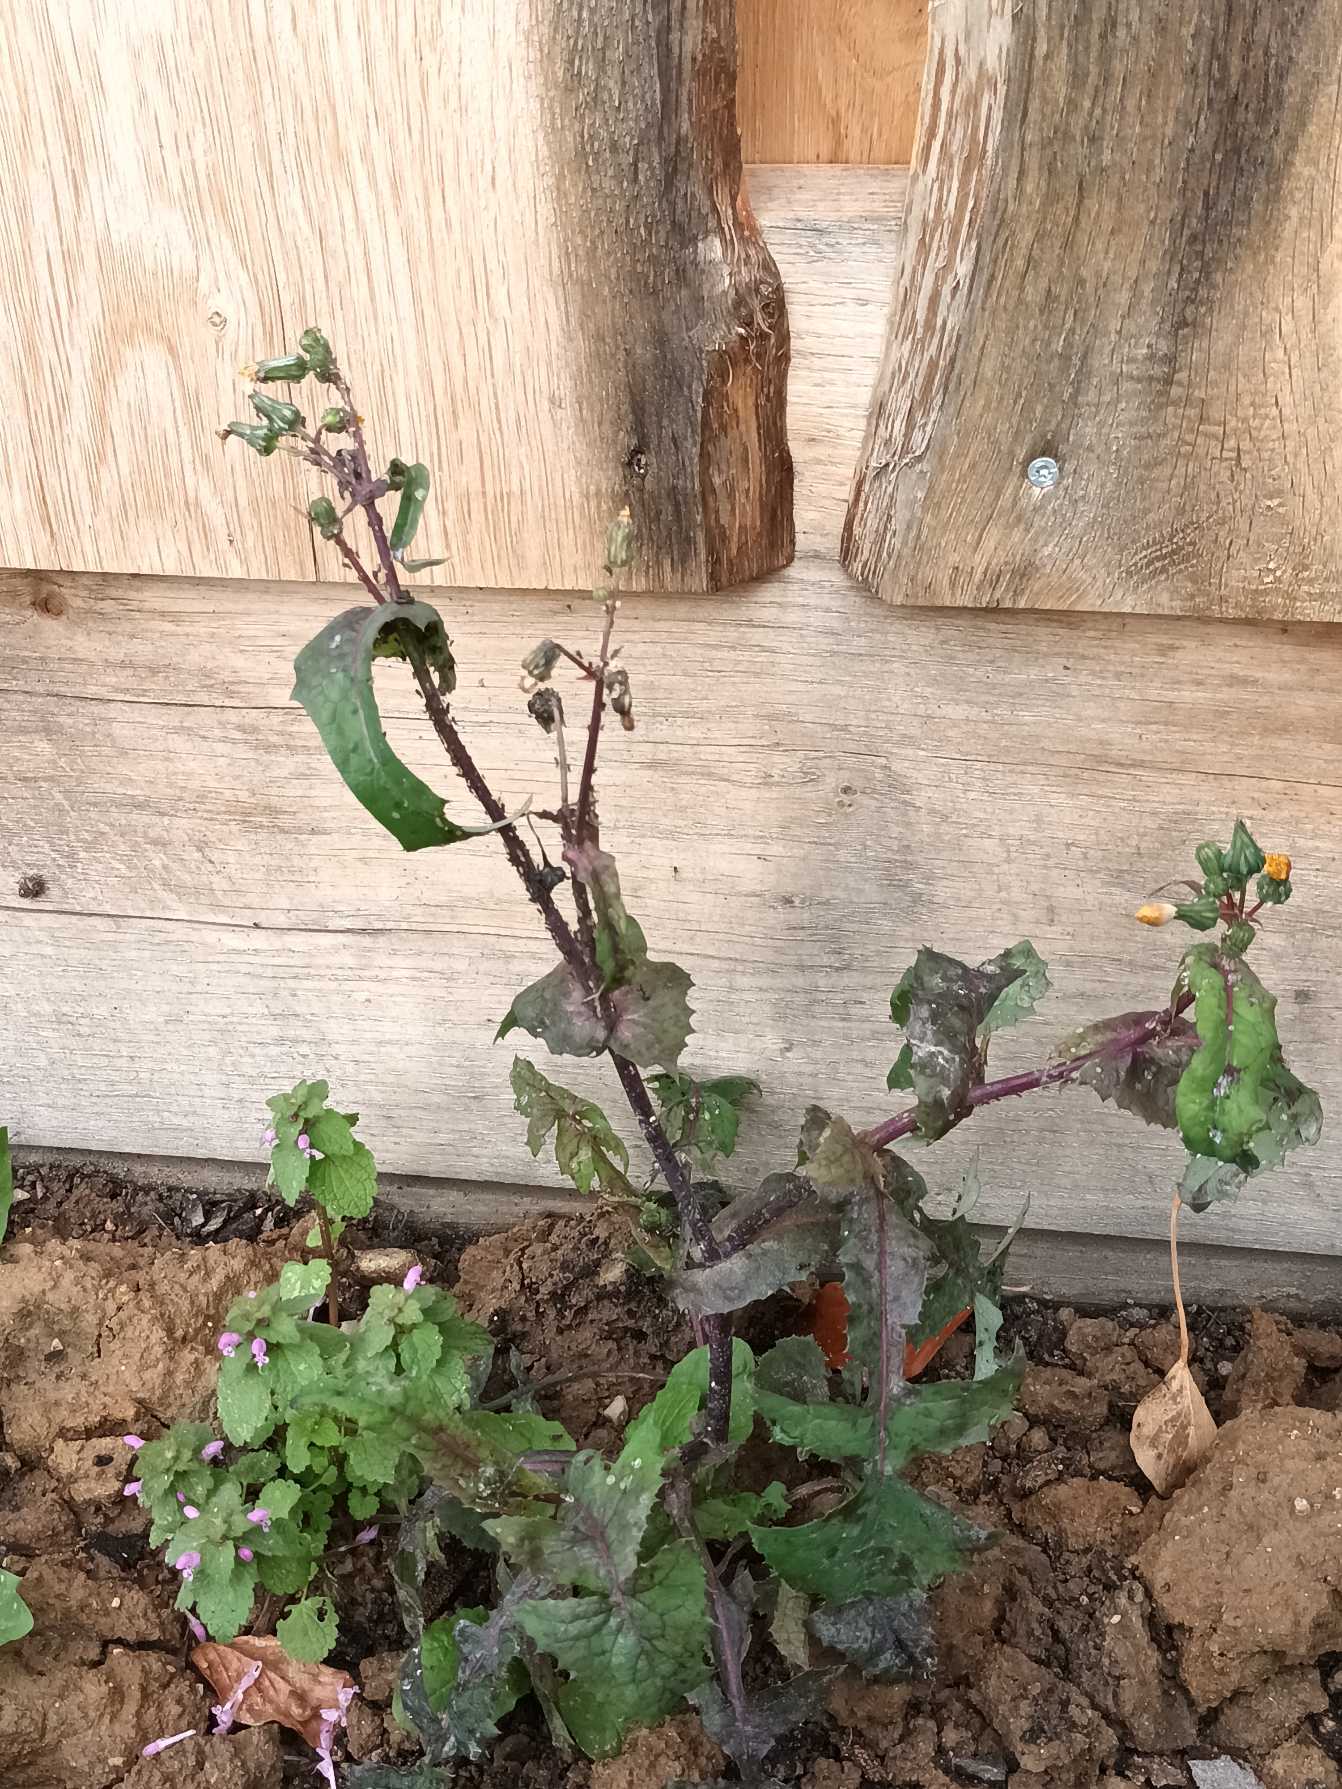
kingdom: Plantae
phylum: Tracheophyta
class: Magnoliopsida
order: Asterales
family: Asteraceae
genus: Sonchus
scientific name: Sonchus oleraceus
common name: Almindelig svinemælk
